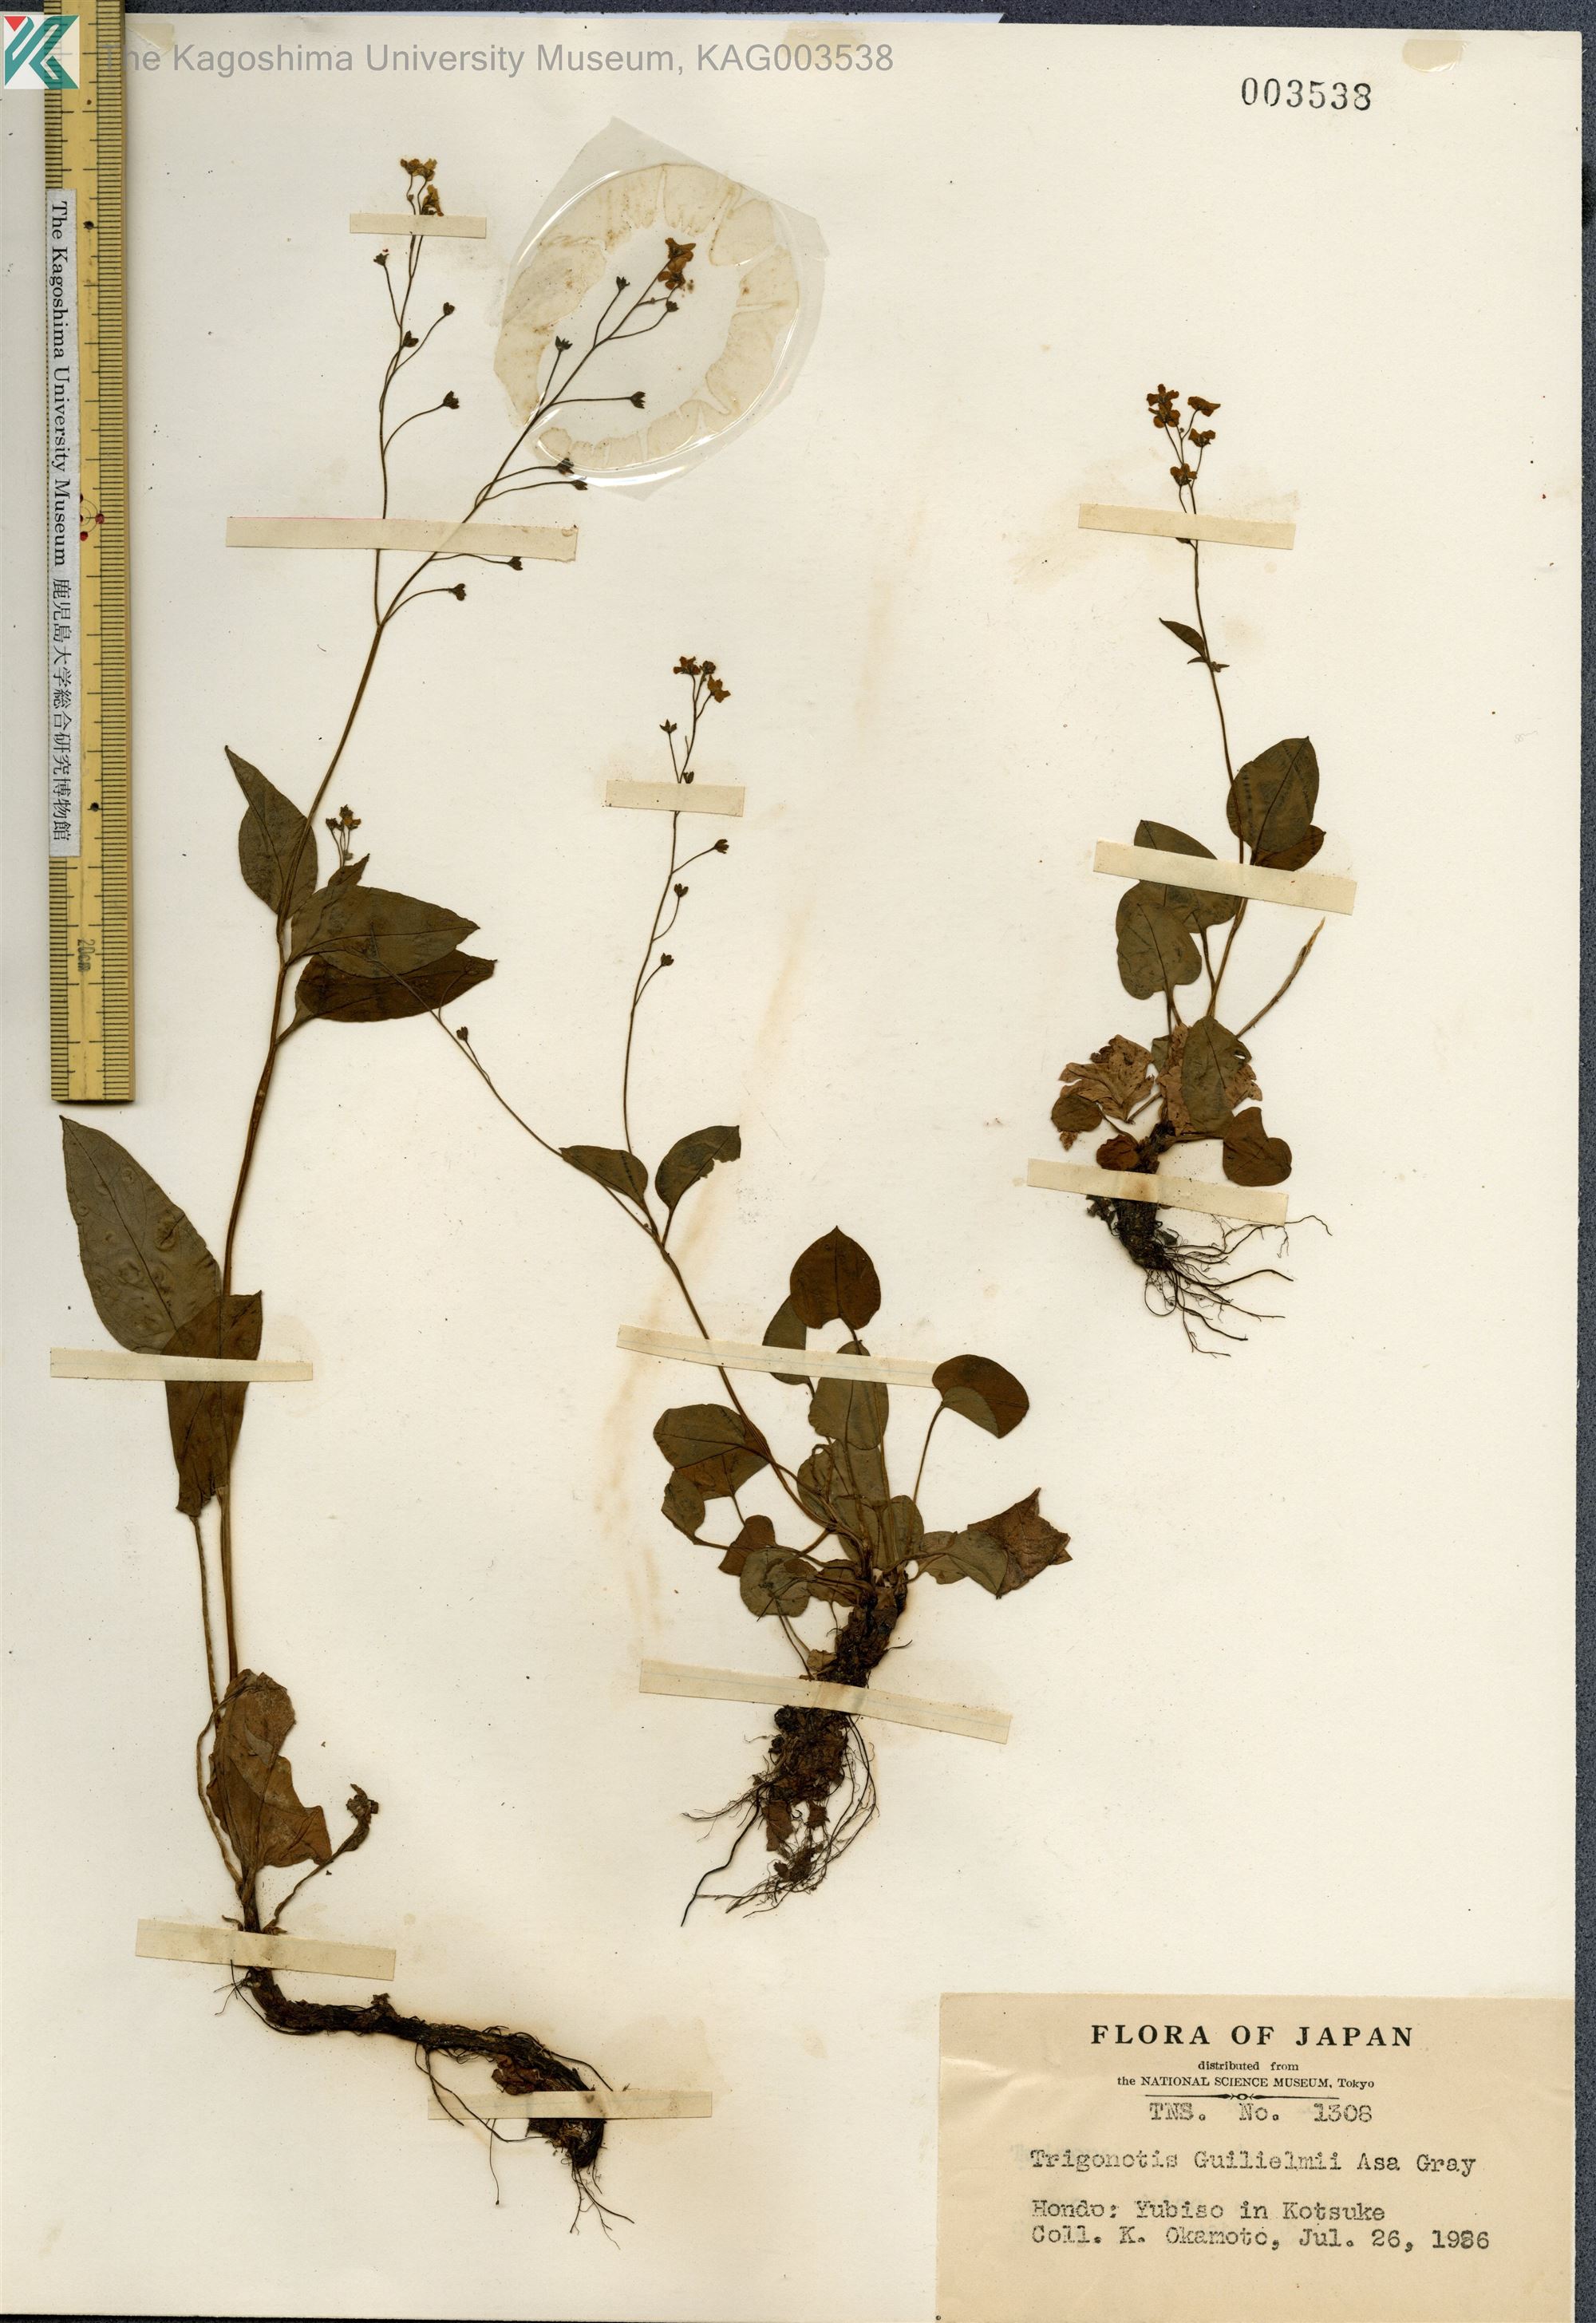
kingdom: Plantae
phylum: Tracheophyta
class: Magnoliopsida
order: Boraginales
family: Boraginaceae
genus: Trigonotis
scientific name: Trigonotis guilielmii
